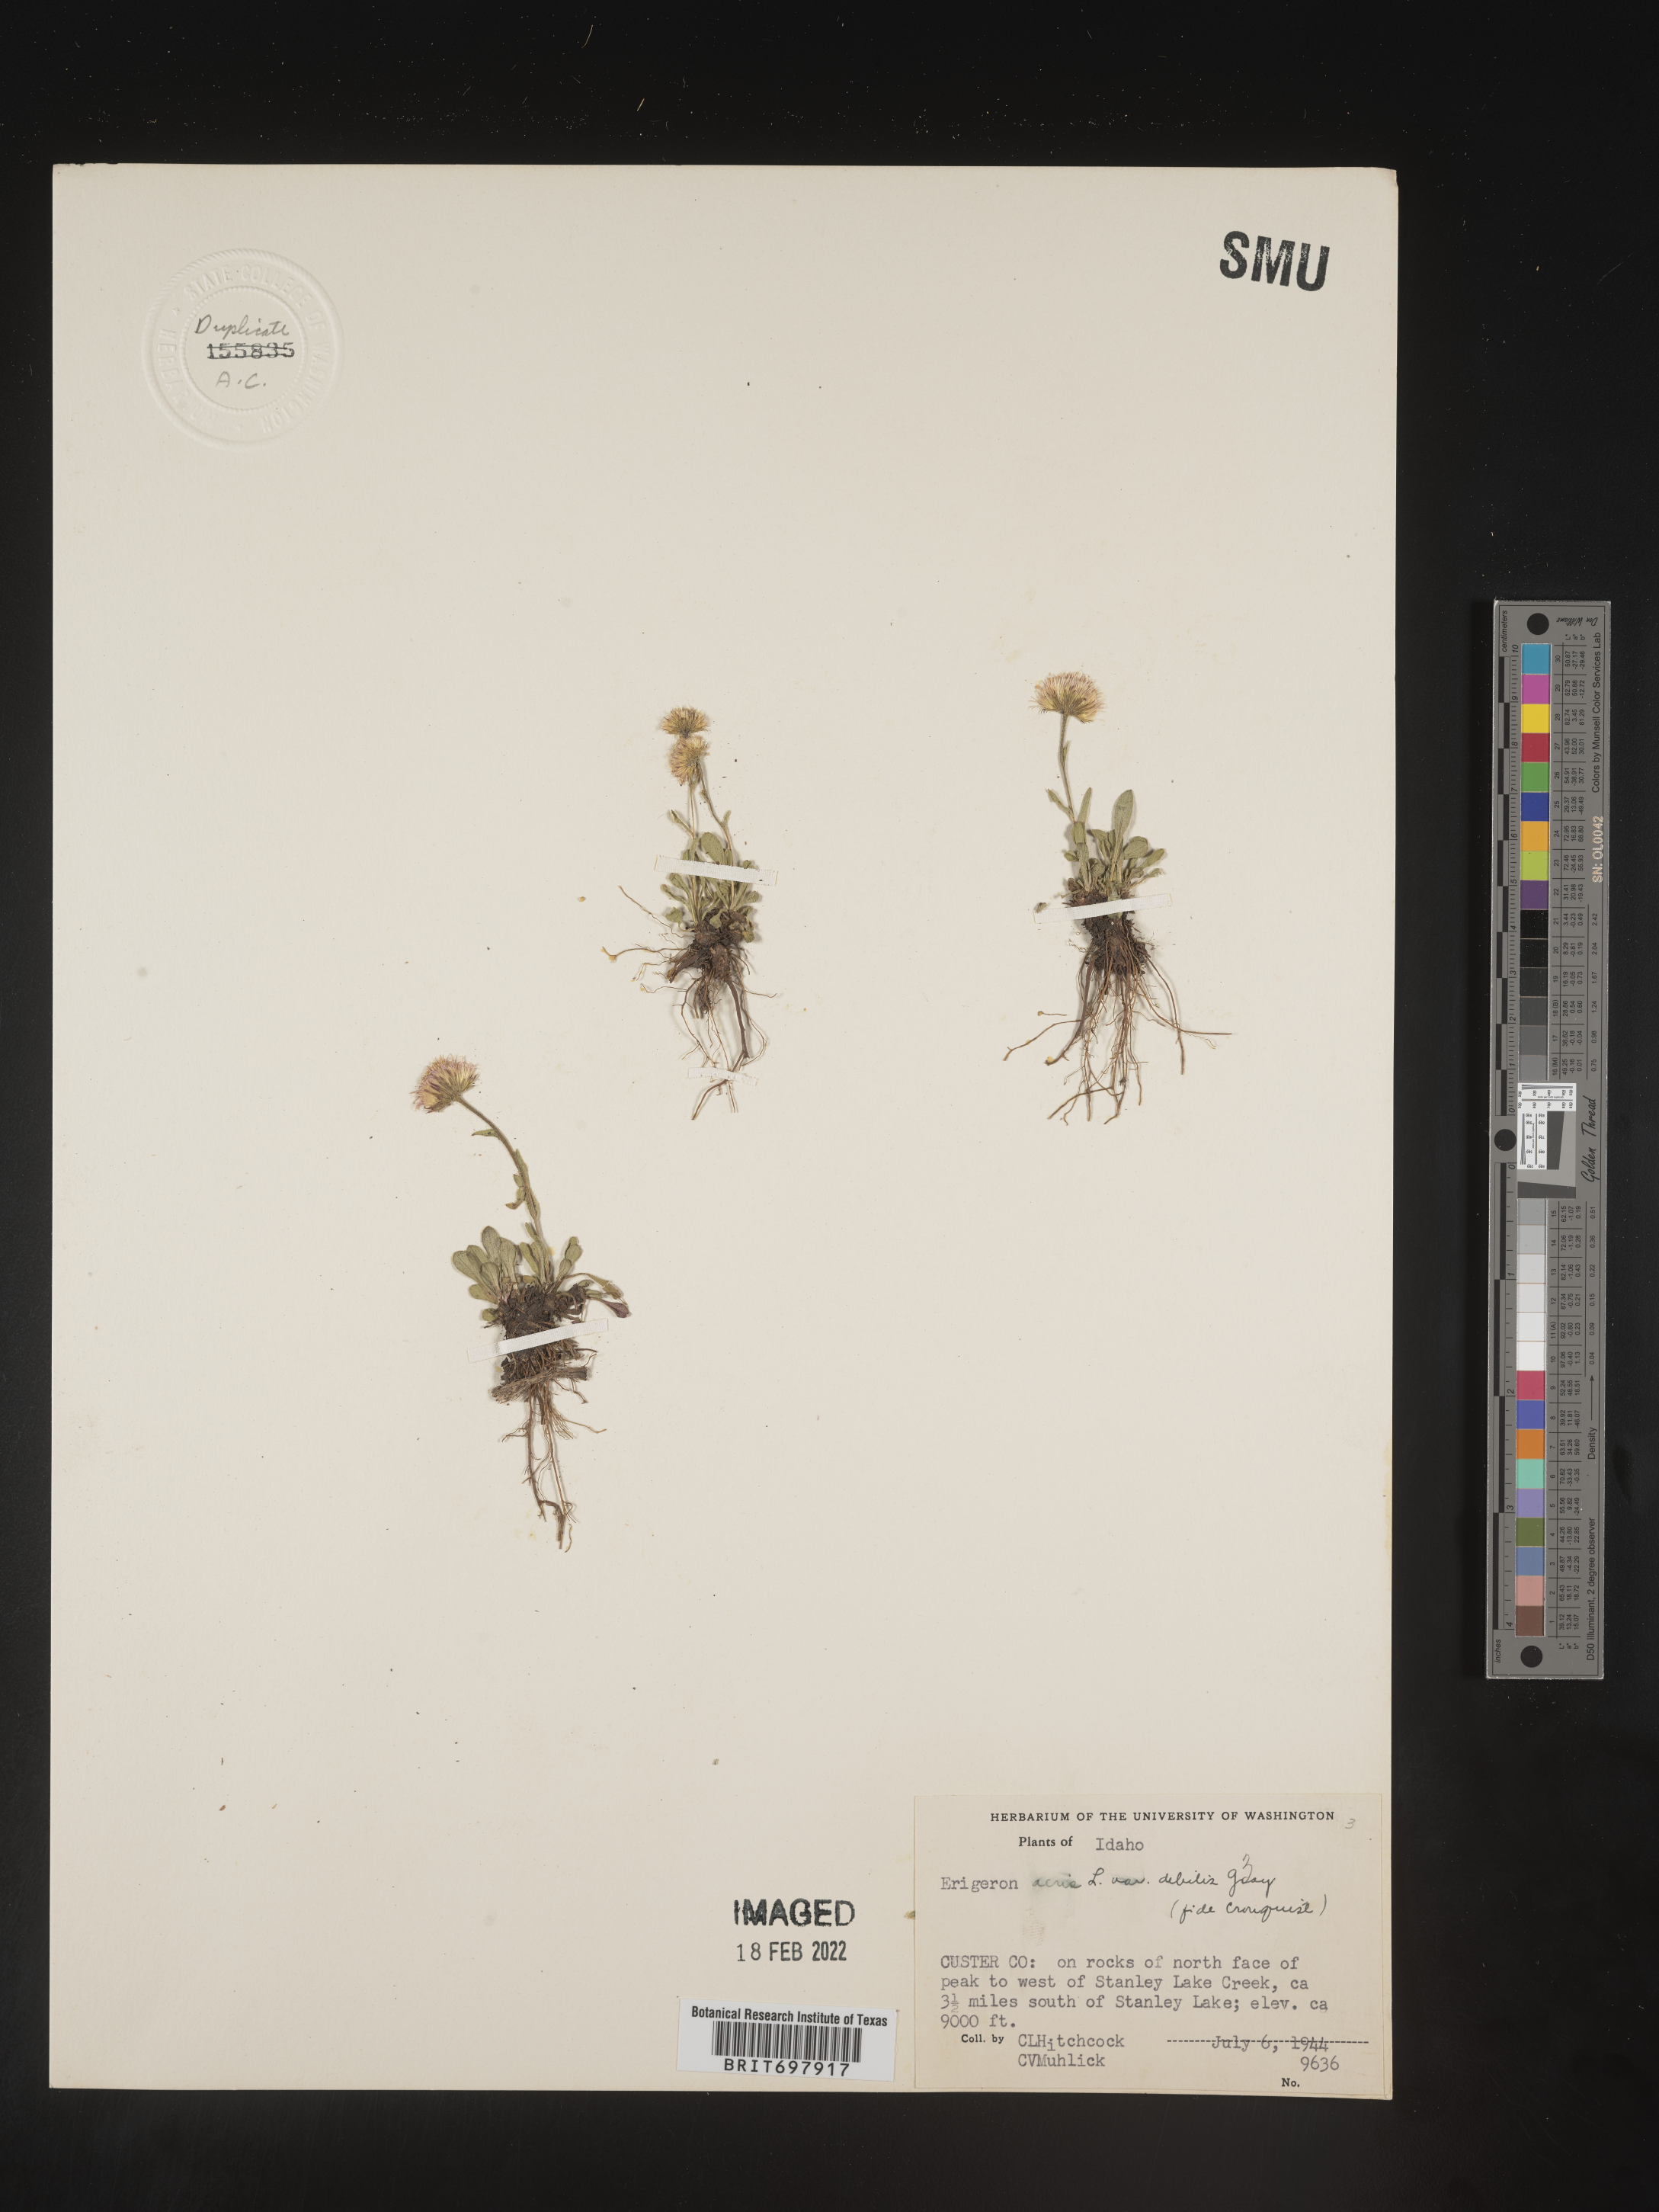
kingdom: Plantae
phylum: Tracheophyta
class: Magnoliopsida
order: Asterales
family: Asteraceae
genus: Erigeron
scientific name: Erigeron nivalis
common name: Snow fleabane
